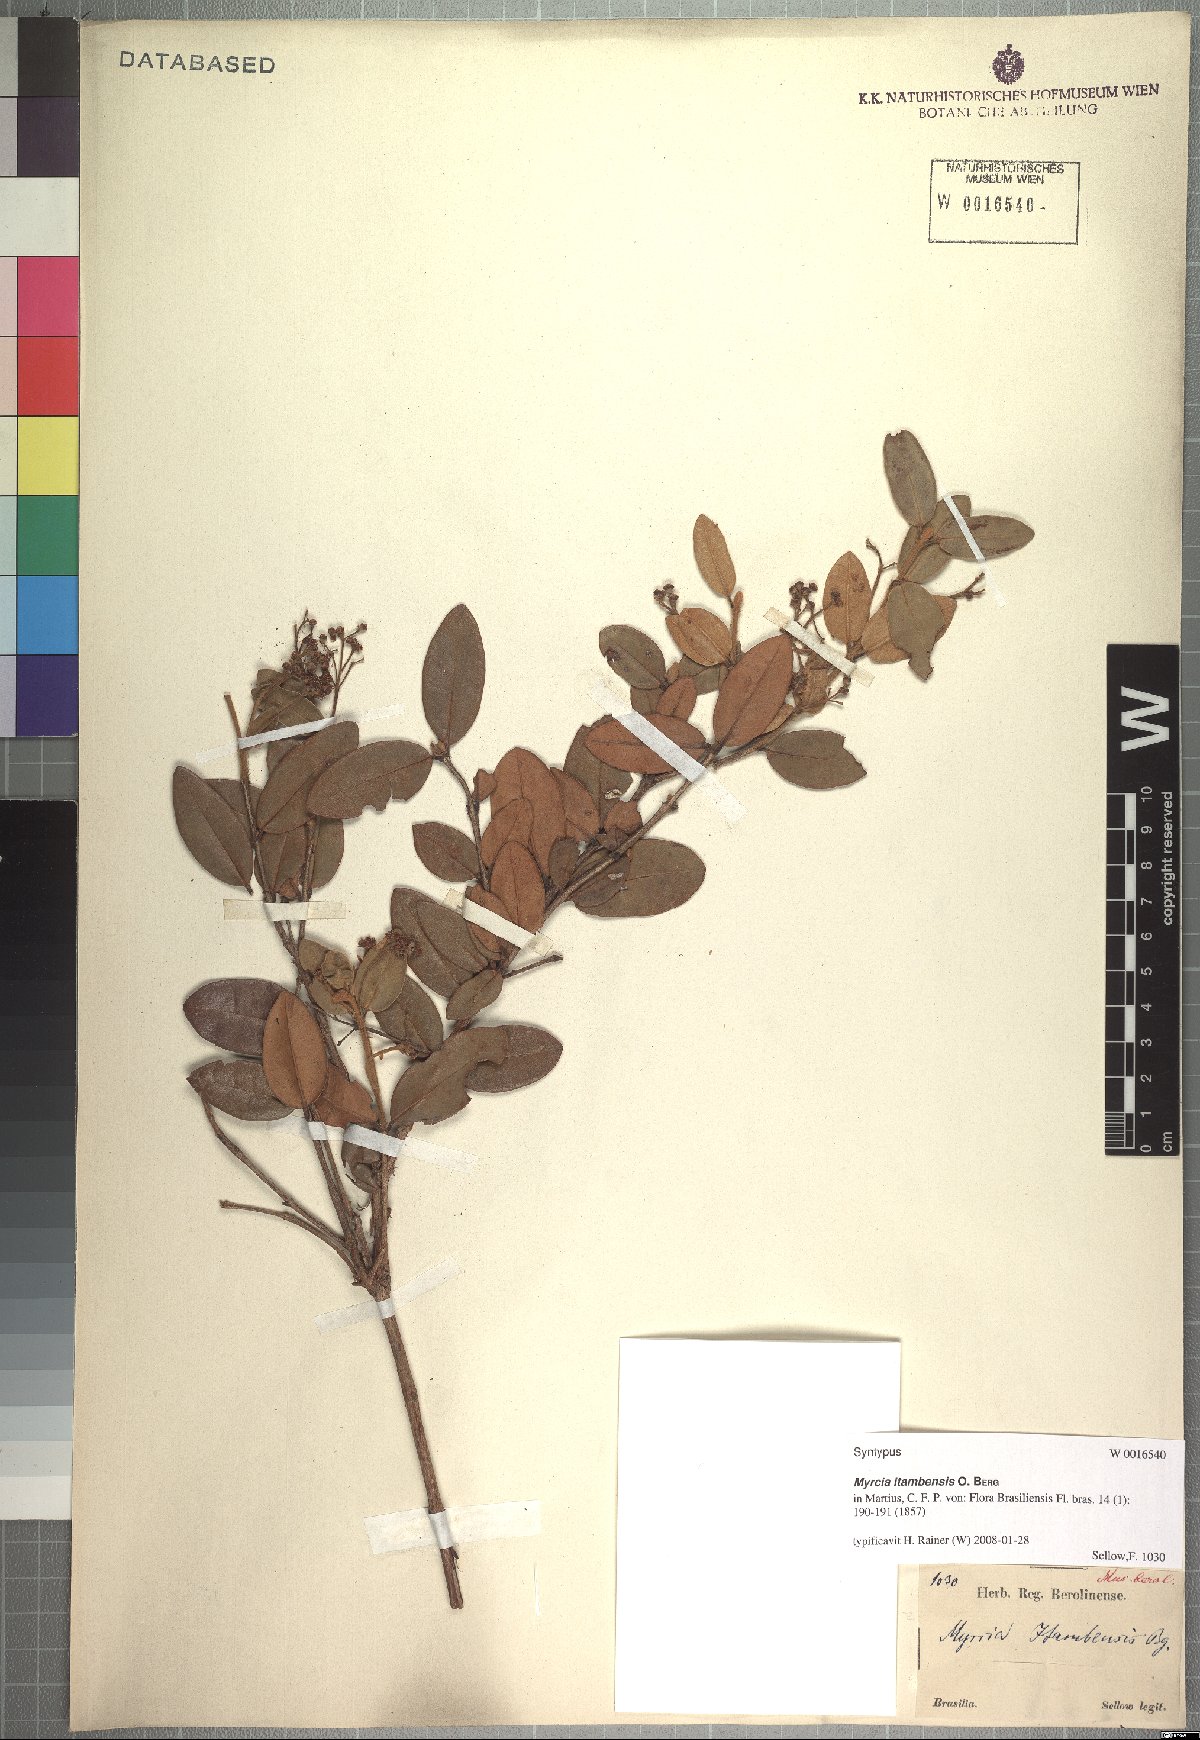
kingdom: Plantae
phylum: Tracheophyta
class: Magnoliopsida
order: Myrtales
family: Myrtaceae
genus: Myrcia
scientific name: Myrcia retorta
